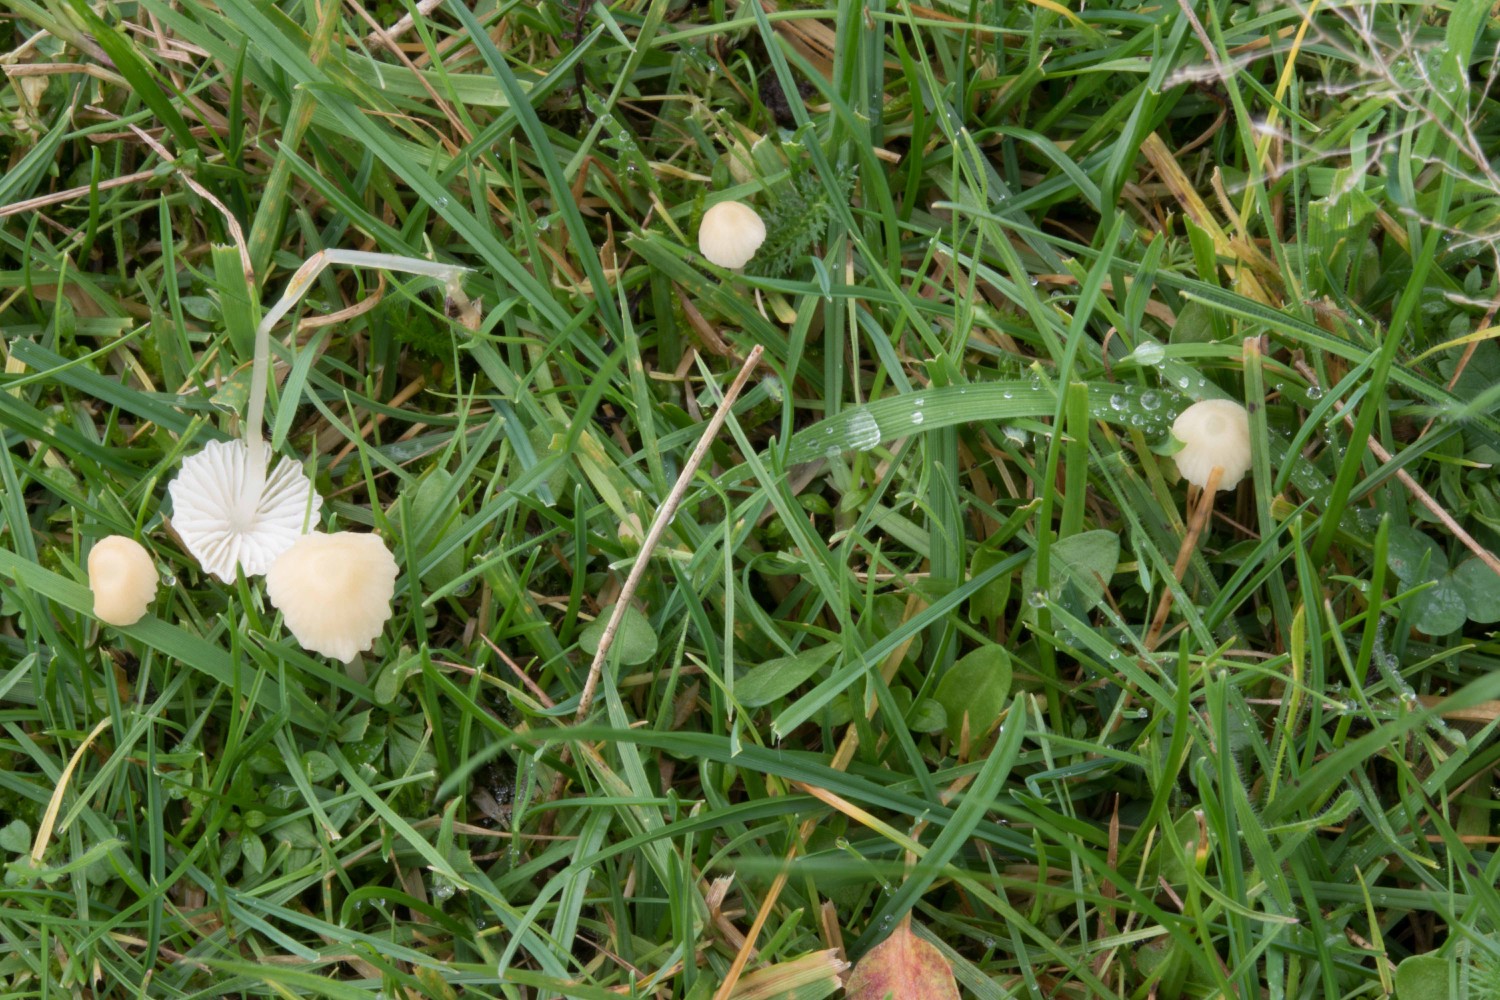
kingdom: Fungi
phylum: Basidiomycota
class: Agaricomycetes
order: Agaricales
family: Mycenaceae
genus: Atheniella
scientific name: Atheniella flavoalba
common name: gulhvid huesvamp
